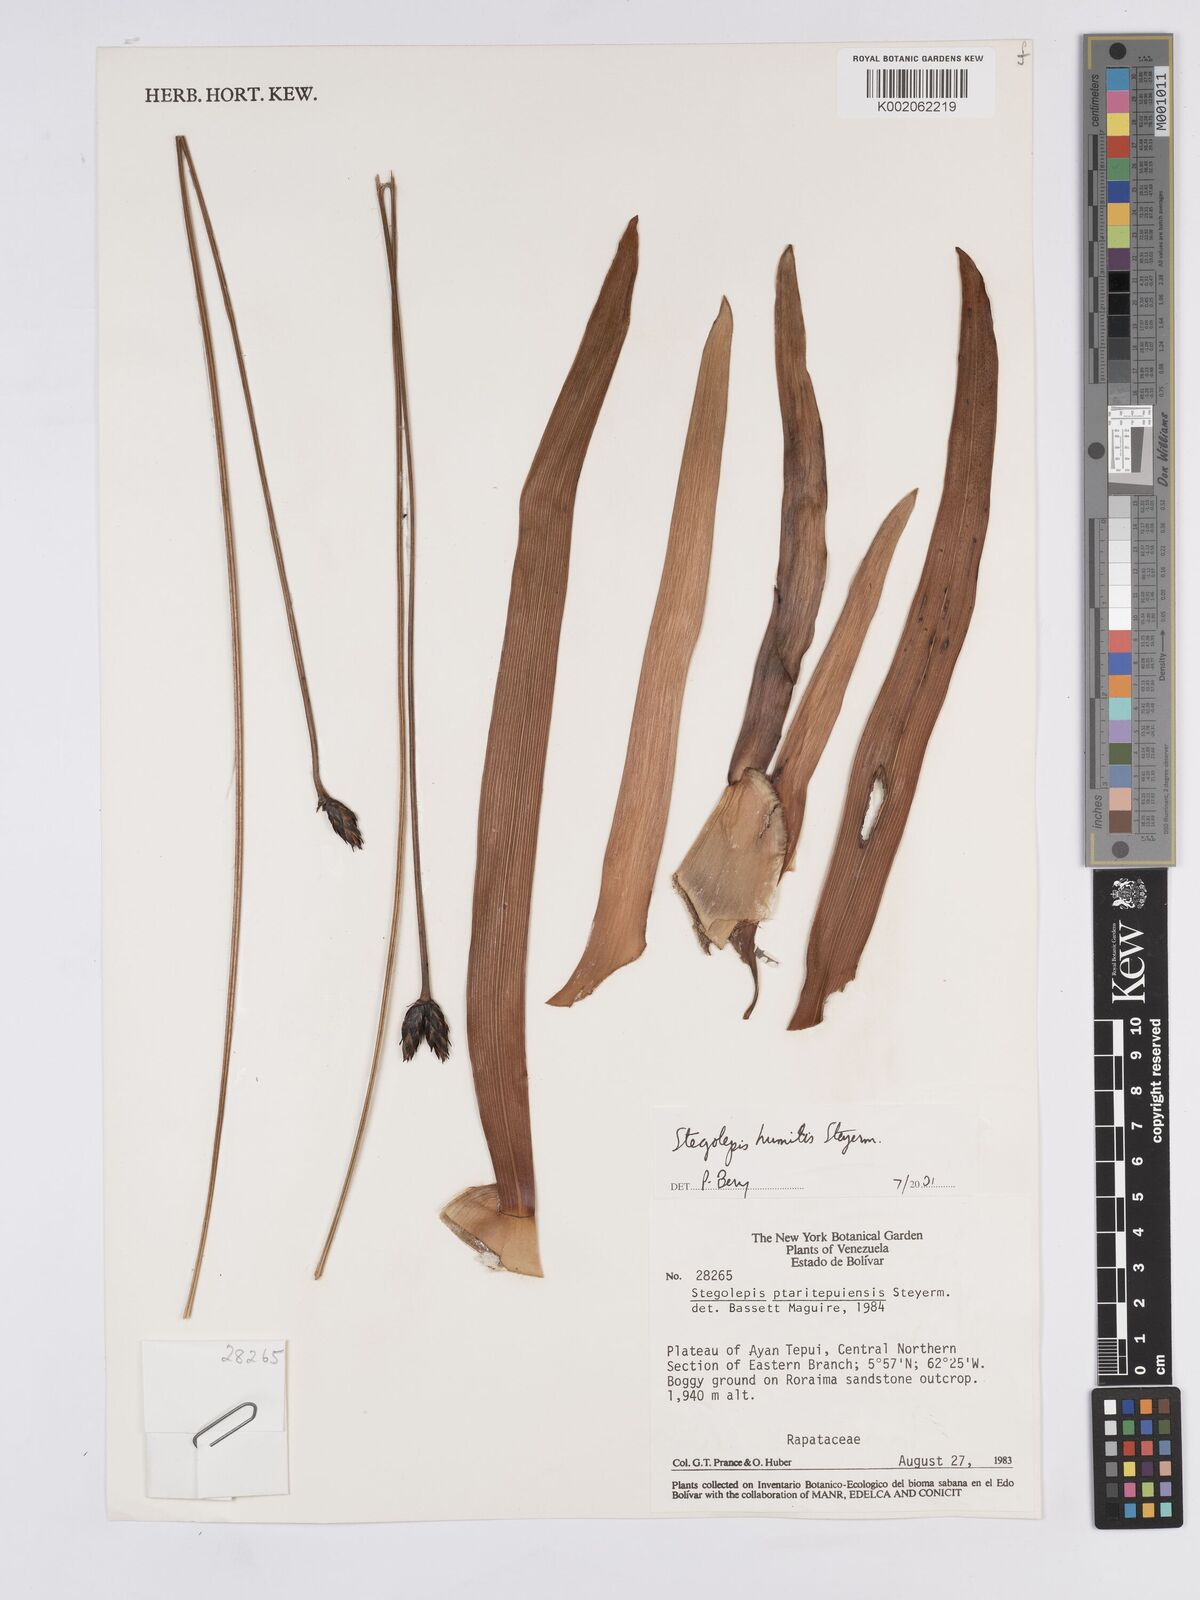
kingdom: Plantae
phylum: Tracheophyta
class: Liliopsida
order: Poales
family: Rapateaceae
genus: Stegolepis
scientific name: Stegolepis humilis
